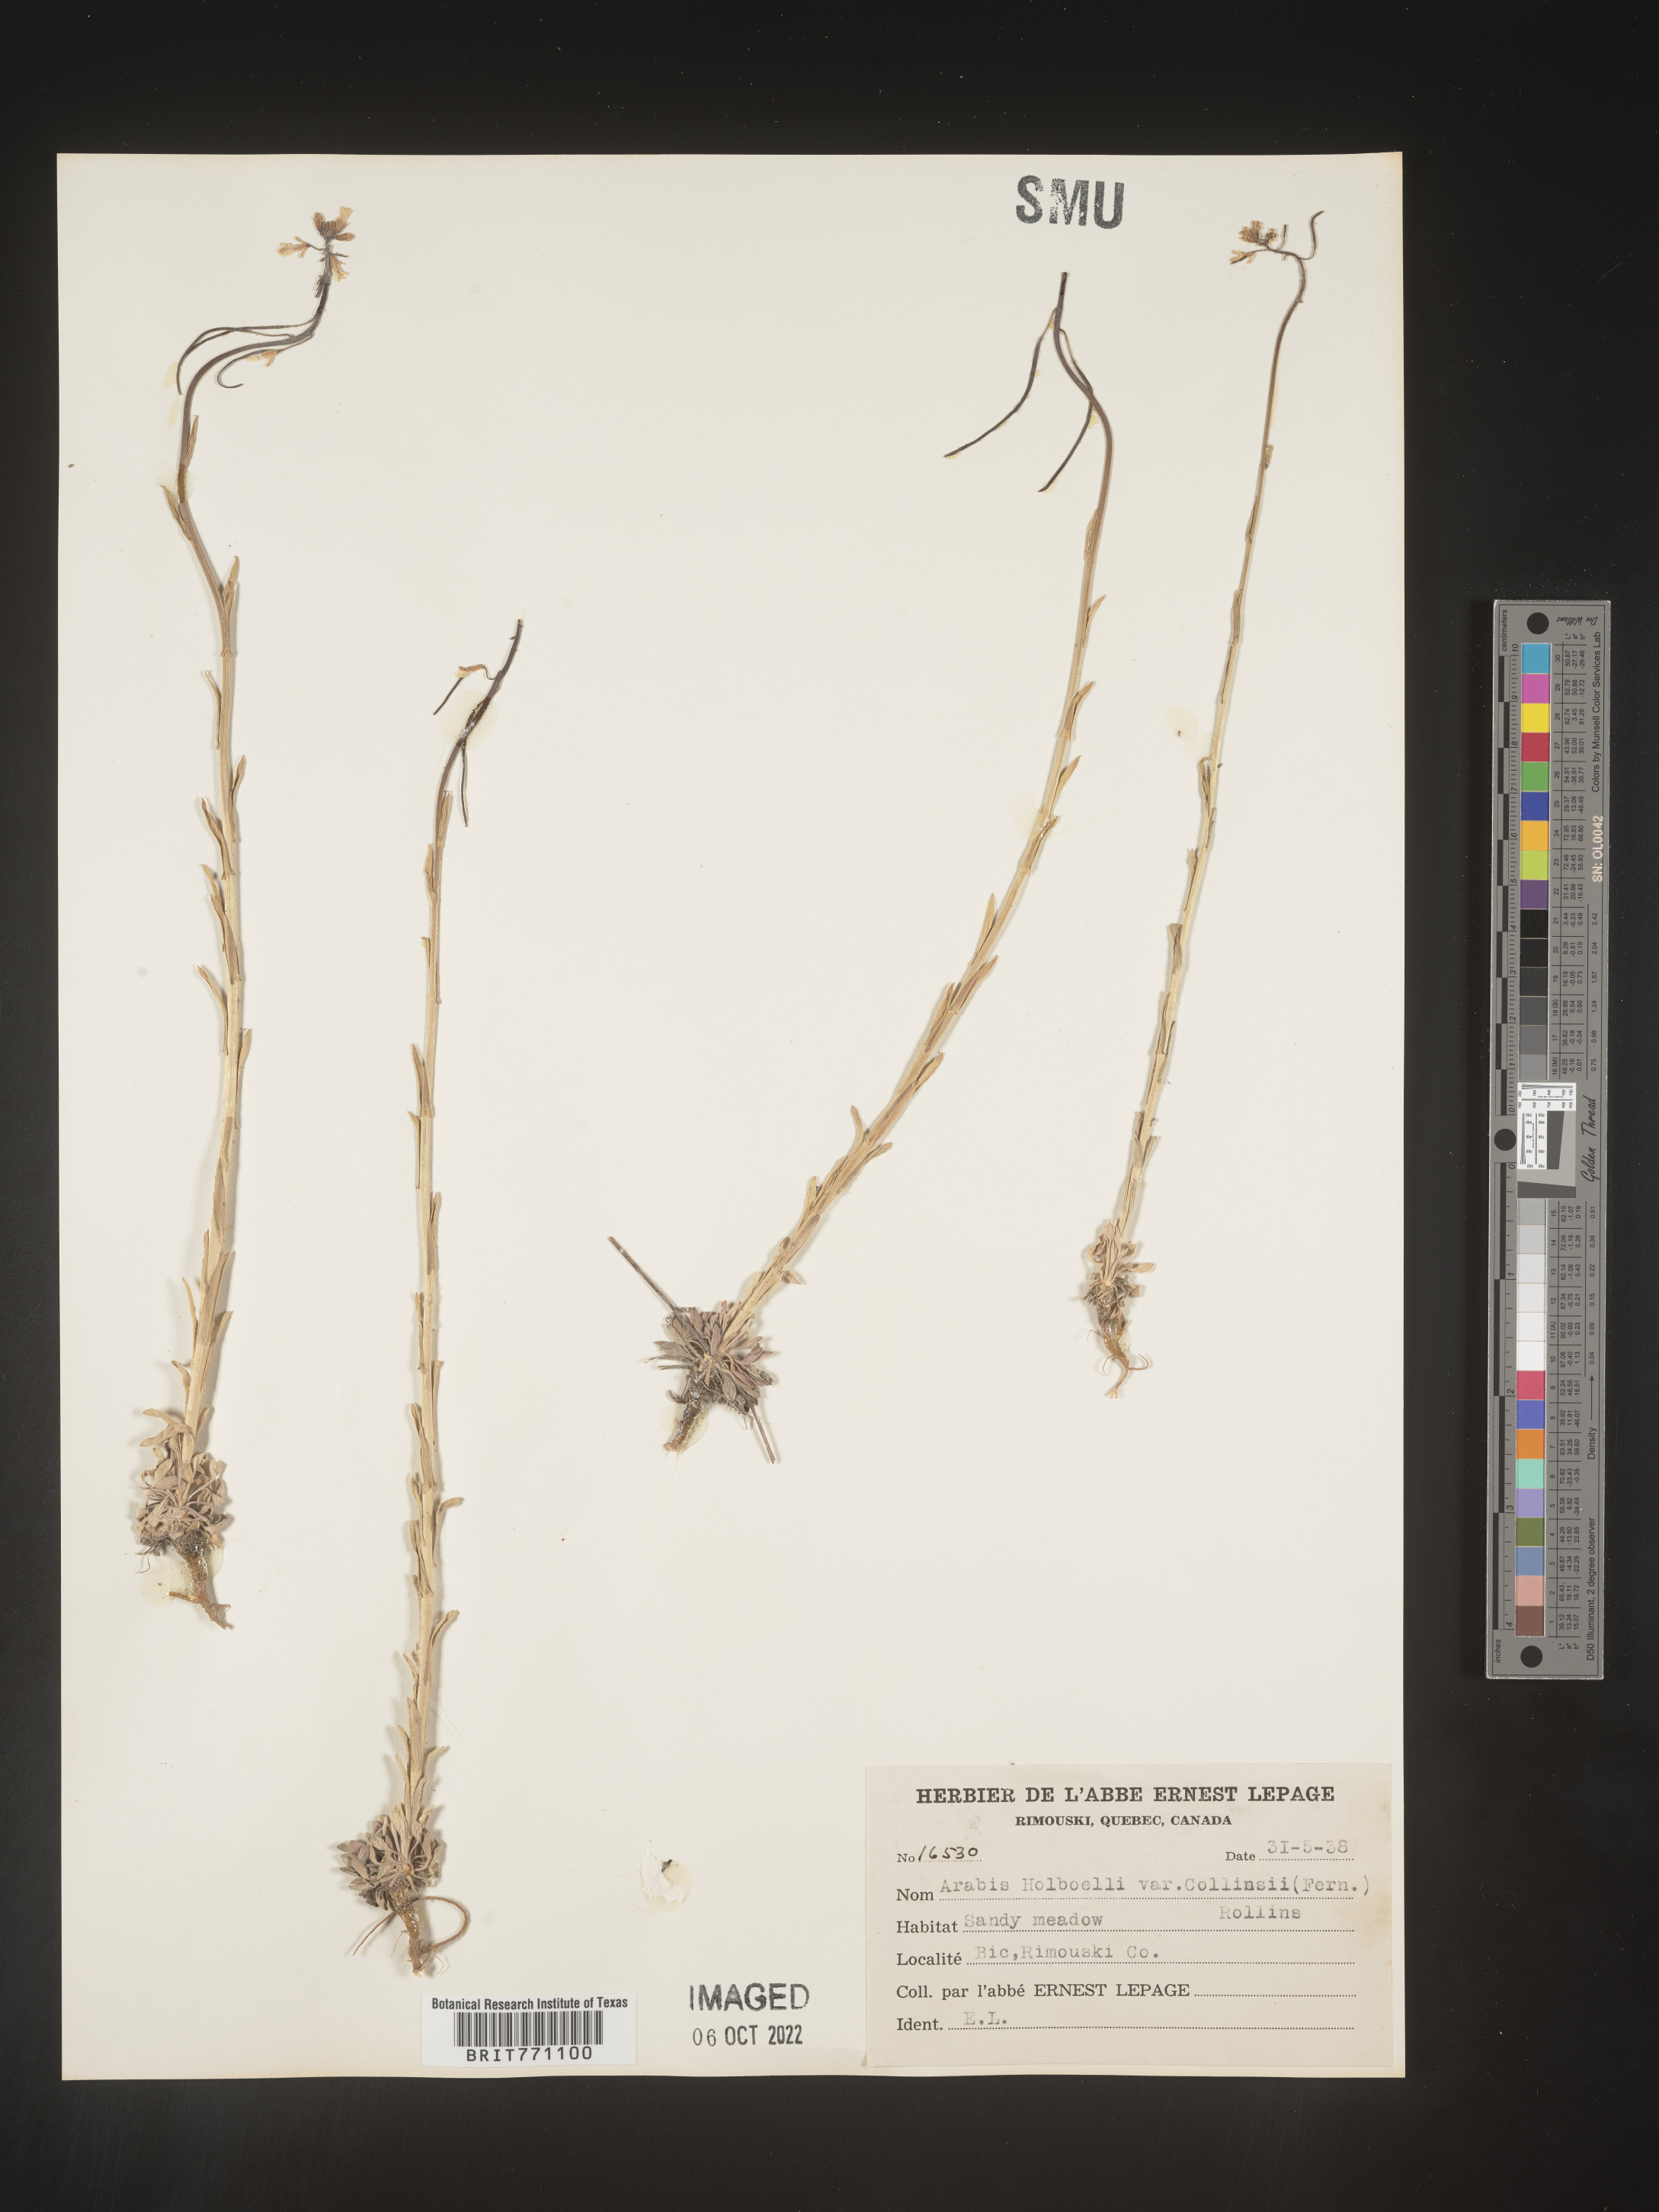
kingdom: Plantae
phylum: Tracheophyta
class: Magnoliopsida
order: Brassicales
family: Brassicaceae
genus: Boechera
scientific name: Boechera holboellii
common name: Holboell's rockcress
